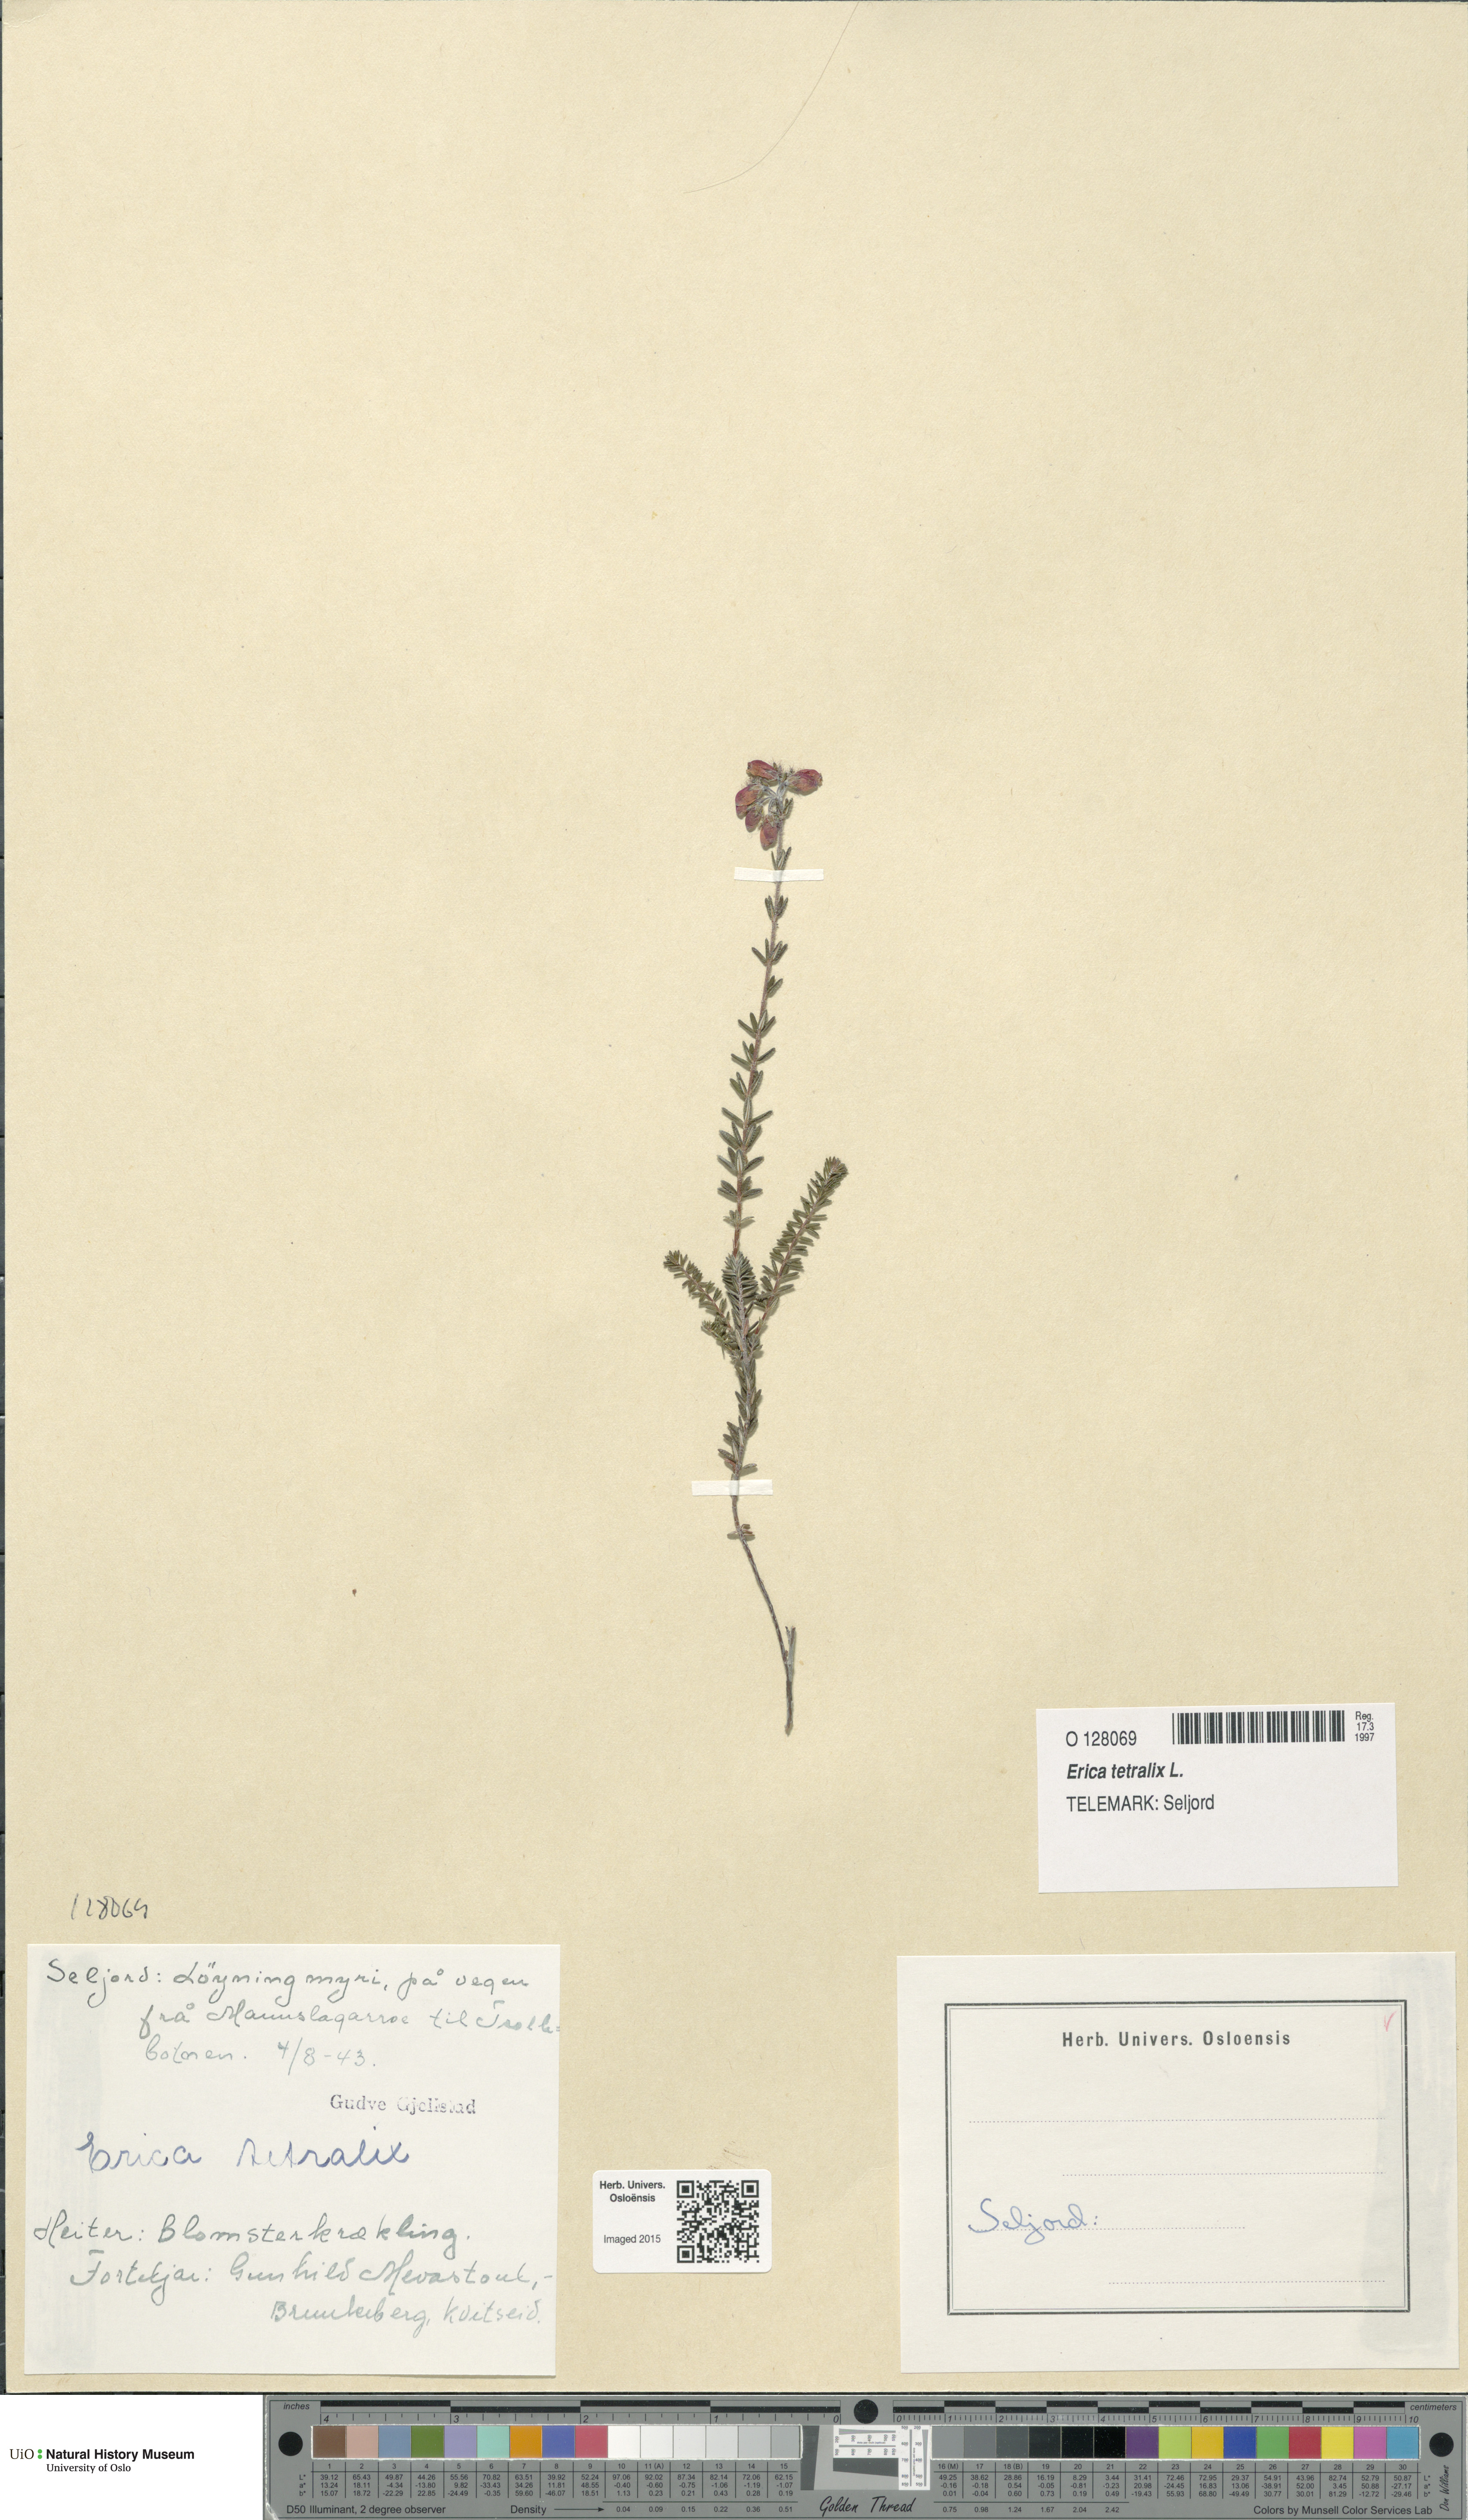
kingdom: Plantae
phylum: Tracheophyta
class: Magnoliopsida
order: Ericales
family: Ericaceae
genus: Erica
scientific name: Erica tetralix
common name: Cross-leaved heath
